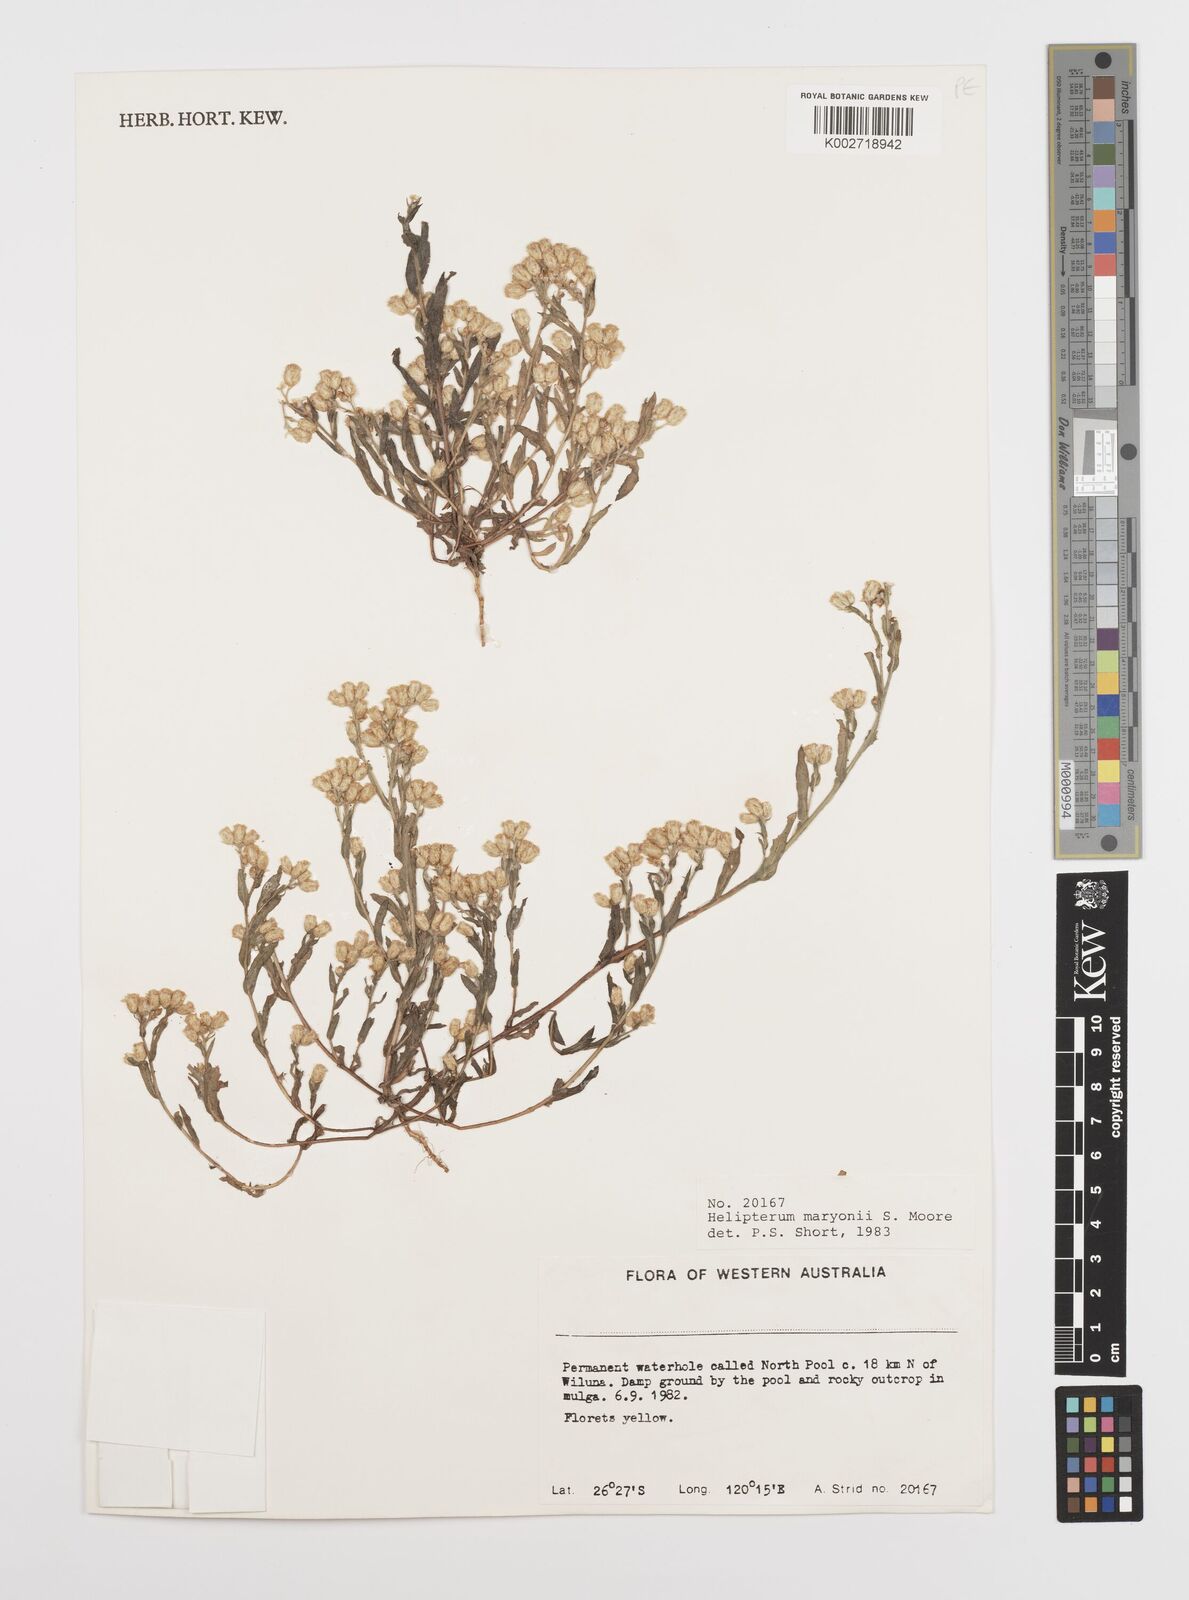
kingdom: Plantae
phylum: Tracheophyta
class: Magnoliopsida
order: Asterales
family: Asteraceae
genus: Rhodanthe
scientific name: Rhodanthe maryonii
